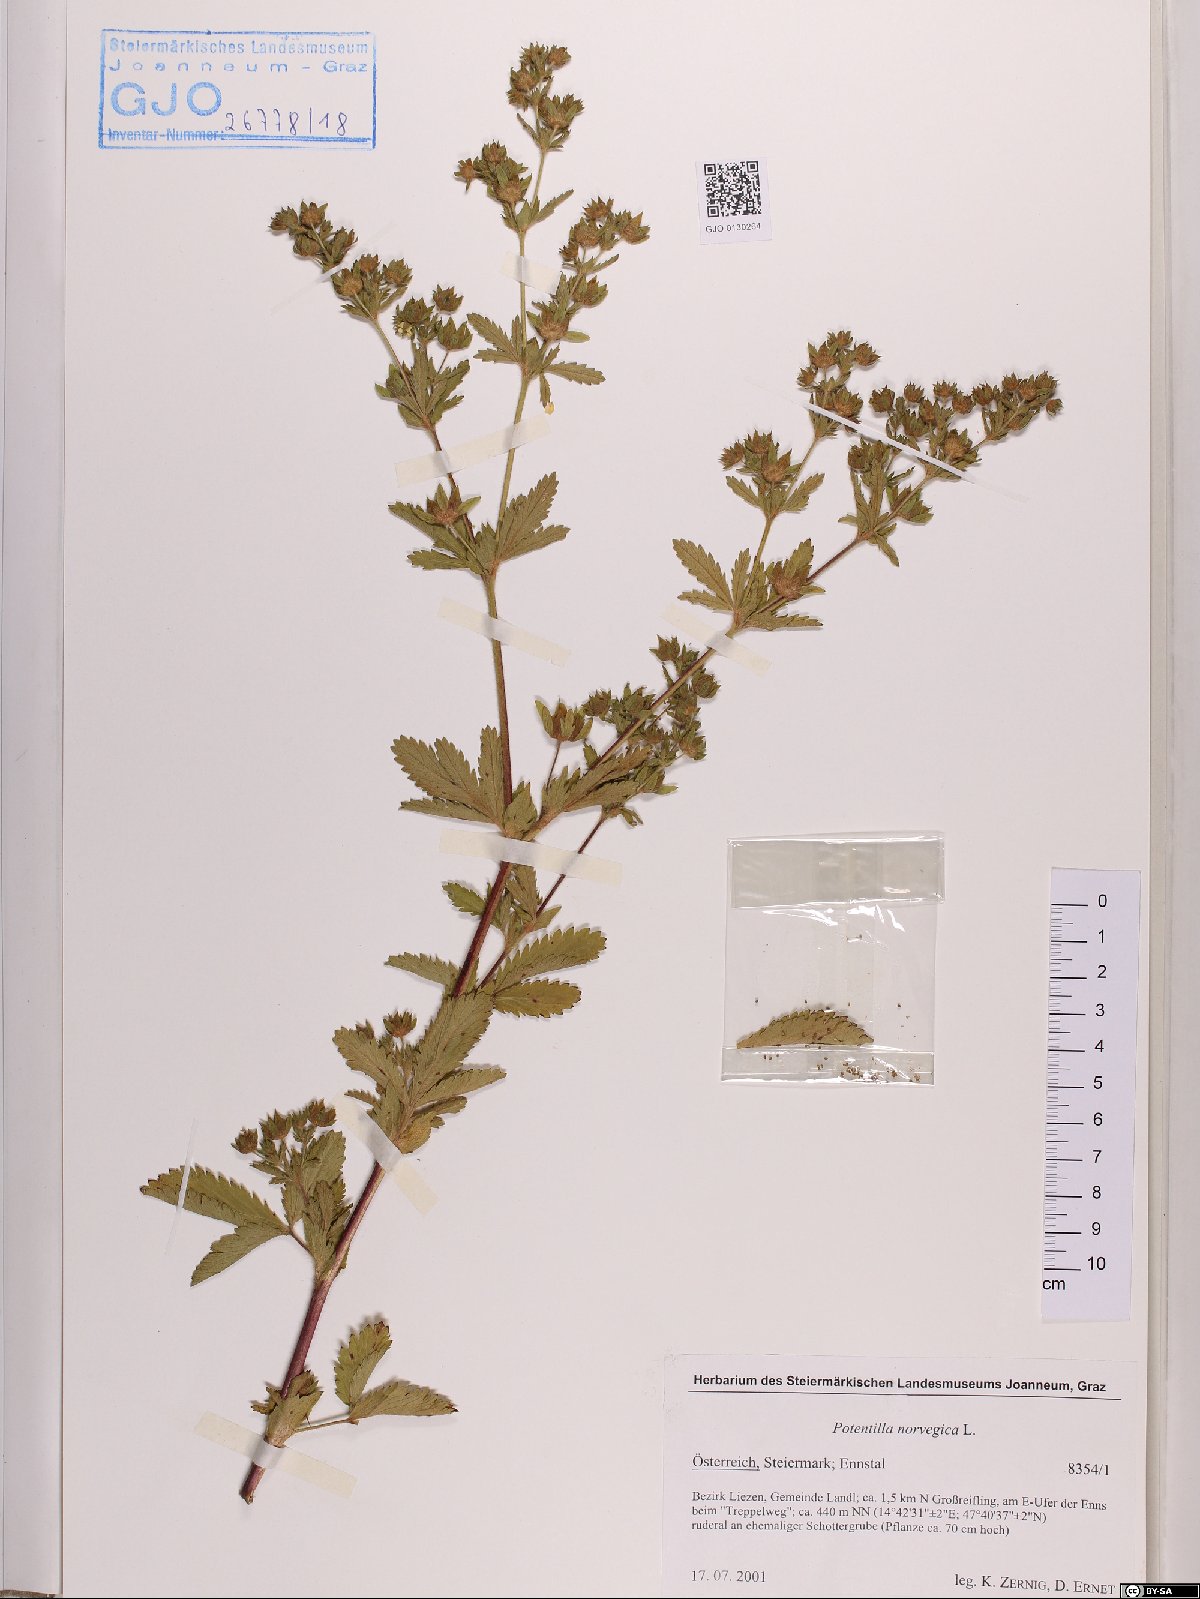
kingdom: Plantae
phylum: Tracheophyta
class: Magnoliopsida
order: Rosales
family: Rosaceae
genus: Potentilla
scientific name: Potentilla norvegica
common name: Ternate-leaved cinquefoil
